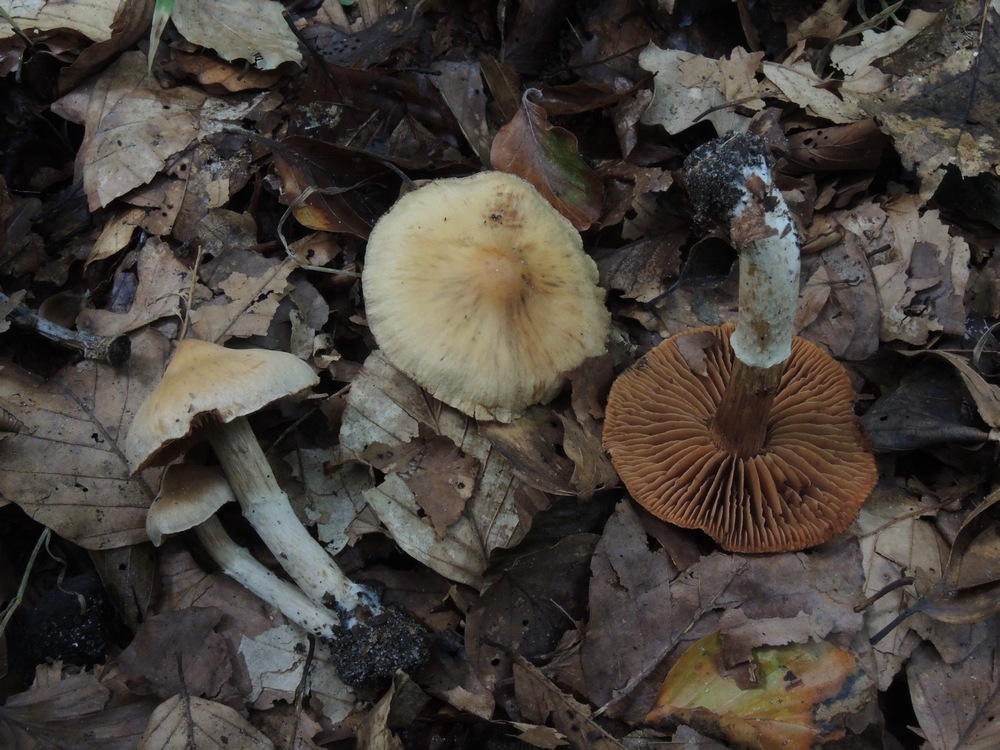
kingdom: Fungi
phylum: Basidiomycota
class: Agaricomycetes
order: Agaricales
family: Cortinariaceae
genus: Cortinarius
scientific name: Cortinarius hinnuleus
